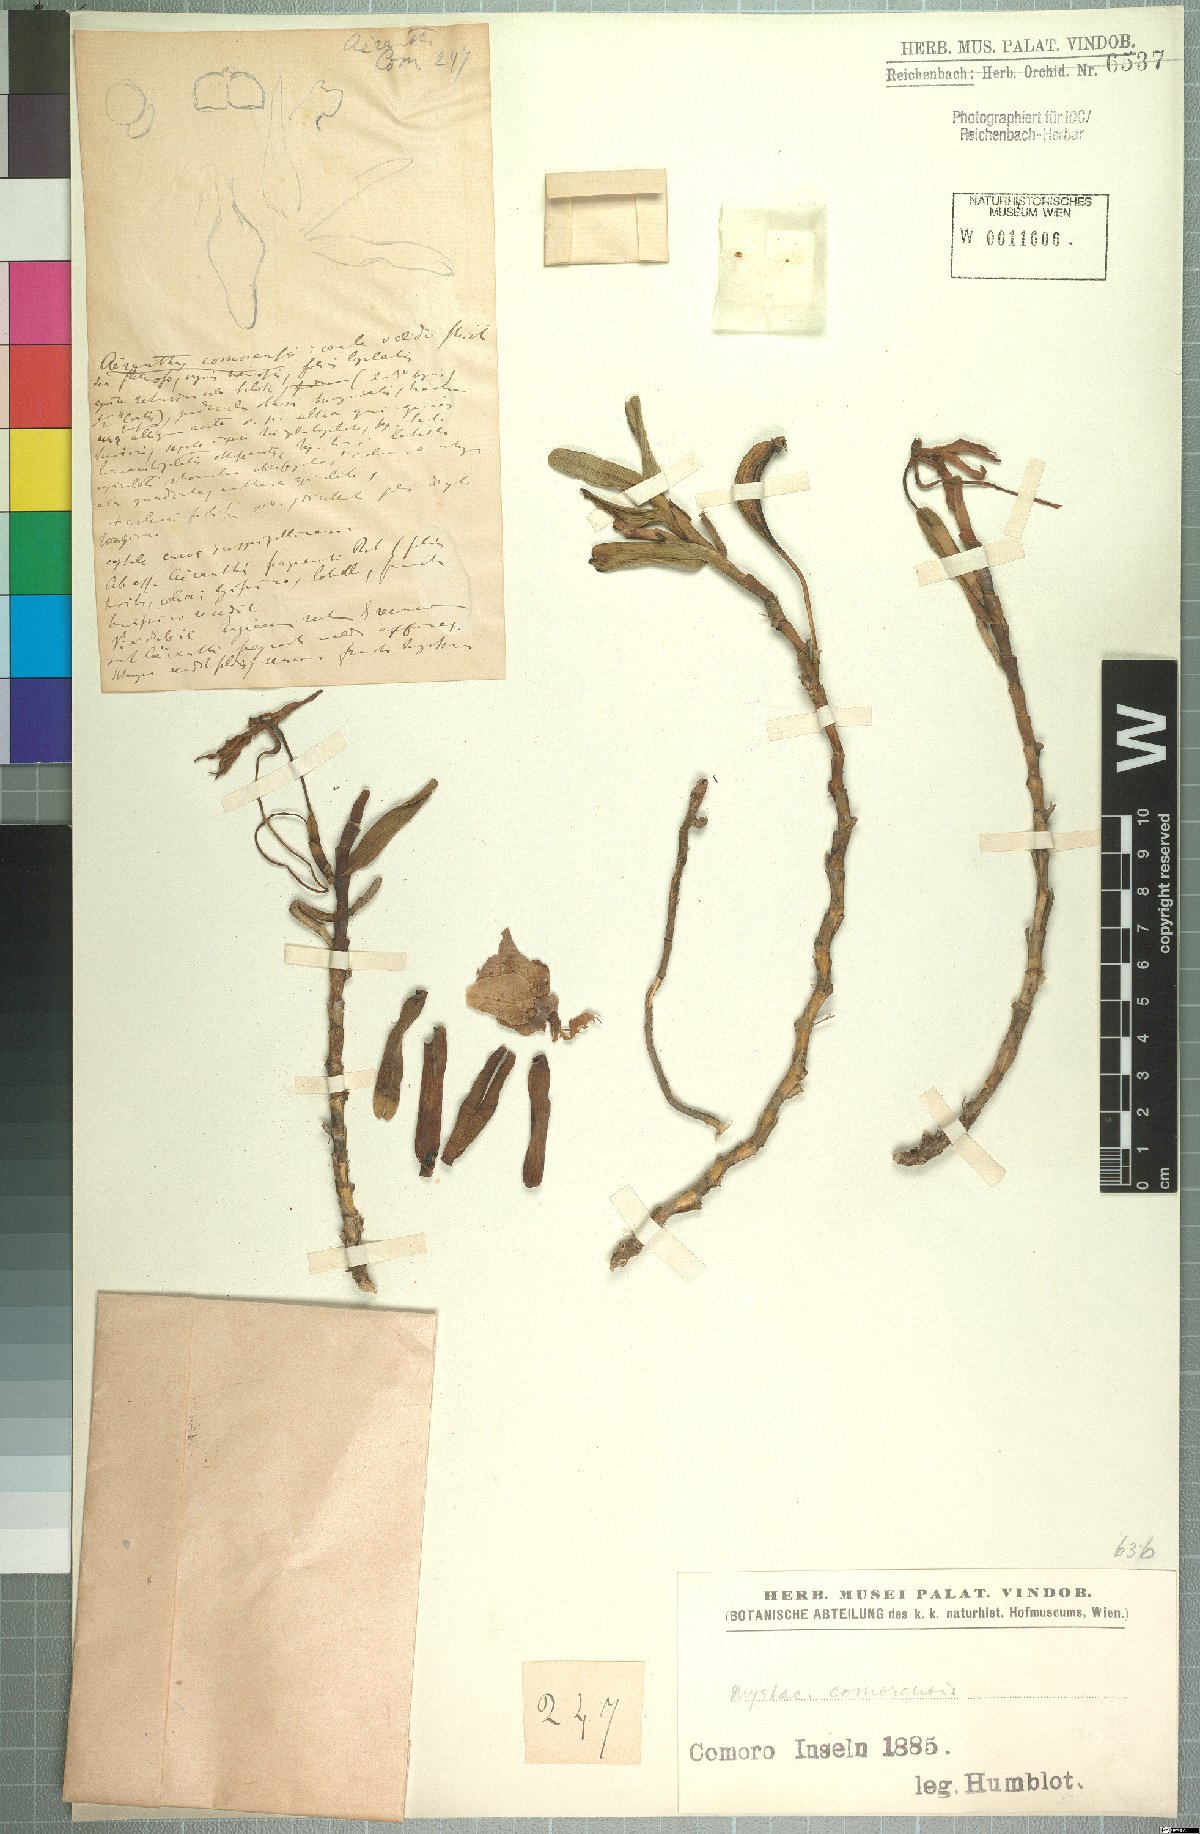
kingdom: Plantae
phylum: Tracheophyta
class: Liliopsida
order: Asparagales
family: Orchidaceae
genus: Jumellea
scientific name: Jumellea comorensis
